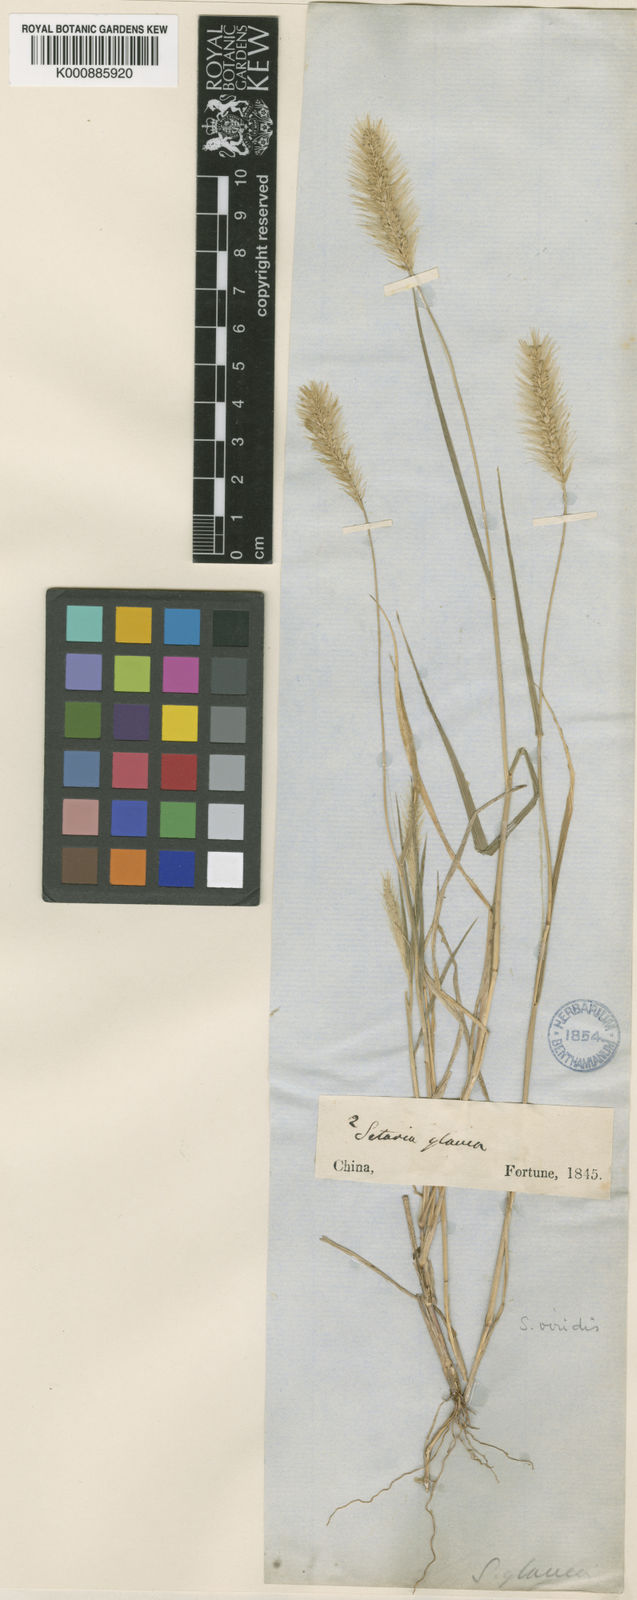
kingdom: Plantae
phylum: Tracheophyta
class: Liliopsida
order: Poales
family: Poaceae
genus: Setaria
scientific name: Setaria viridis
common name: Green bristlegrass
